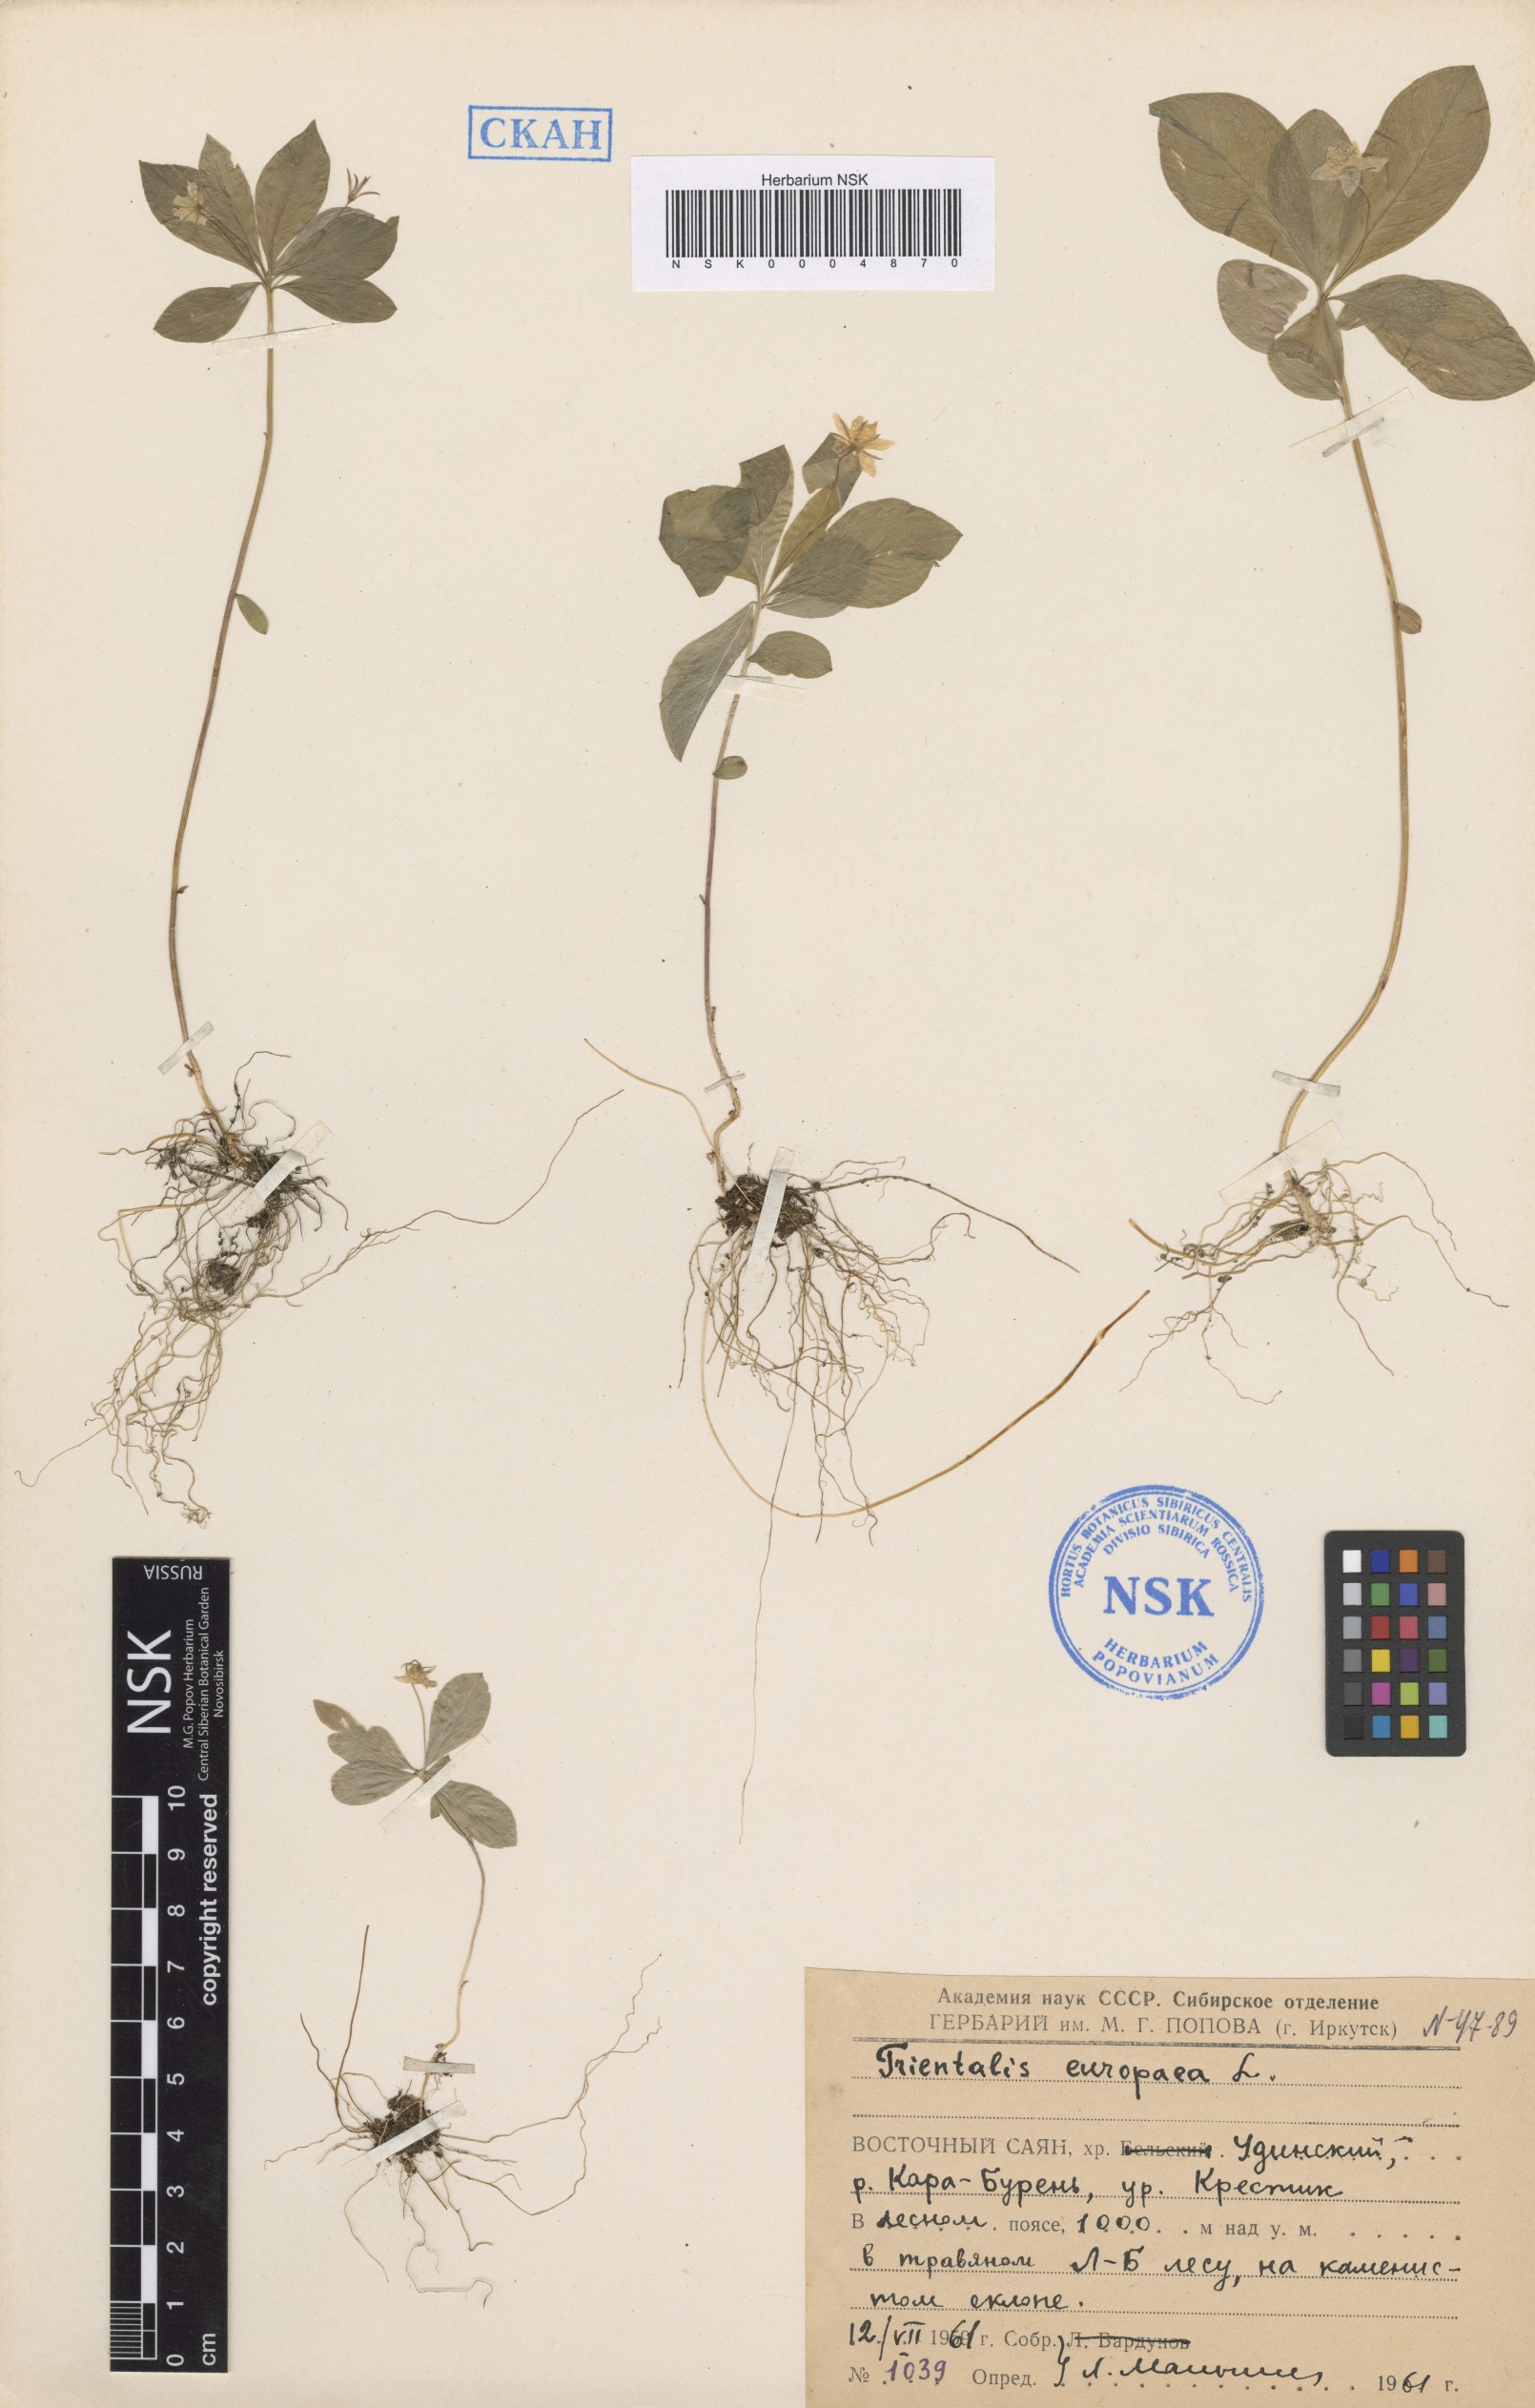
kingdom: Plantae
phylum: Tracheophyta
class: Magnoliopsida
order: Ericales
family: Primulaceae
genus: Lysimachia
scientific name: Lysimachia europaea
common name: Arctic starflower
